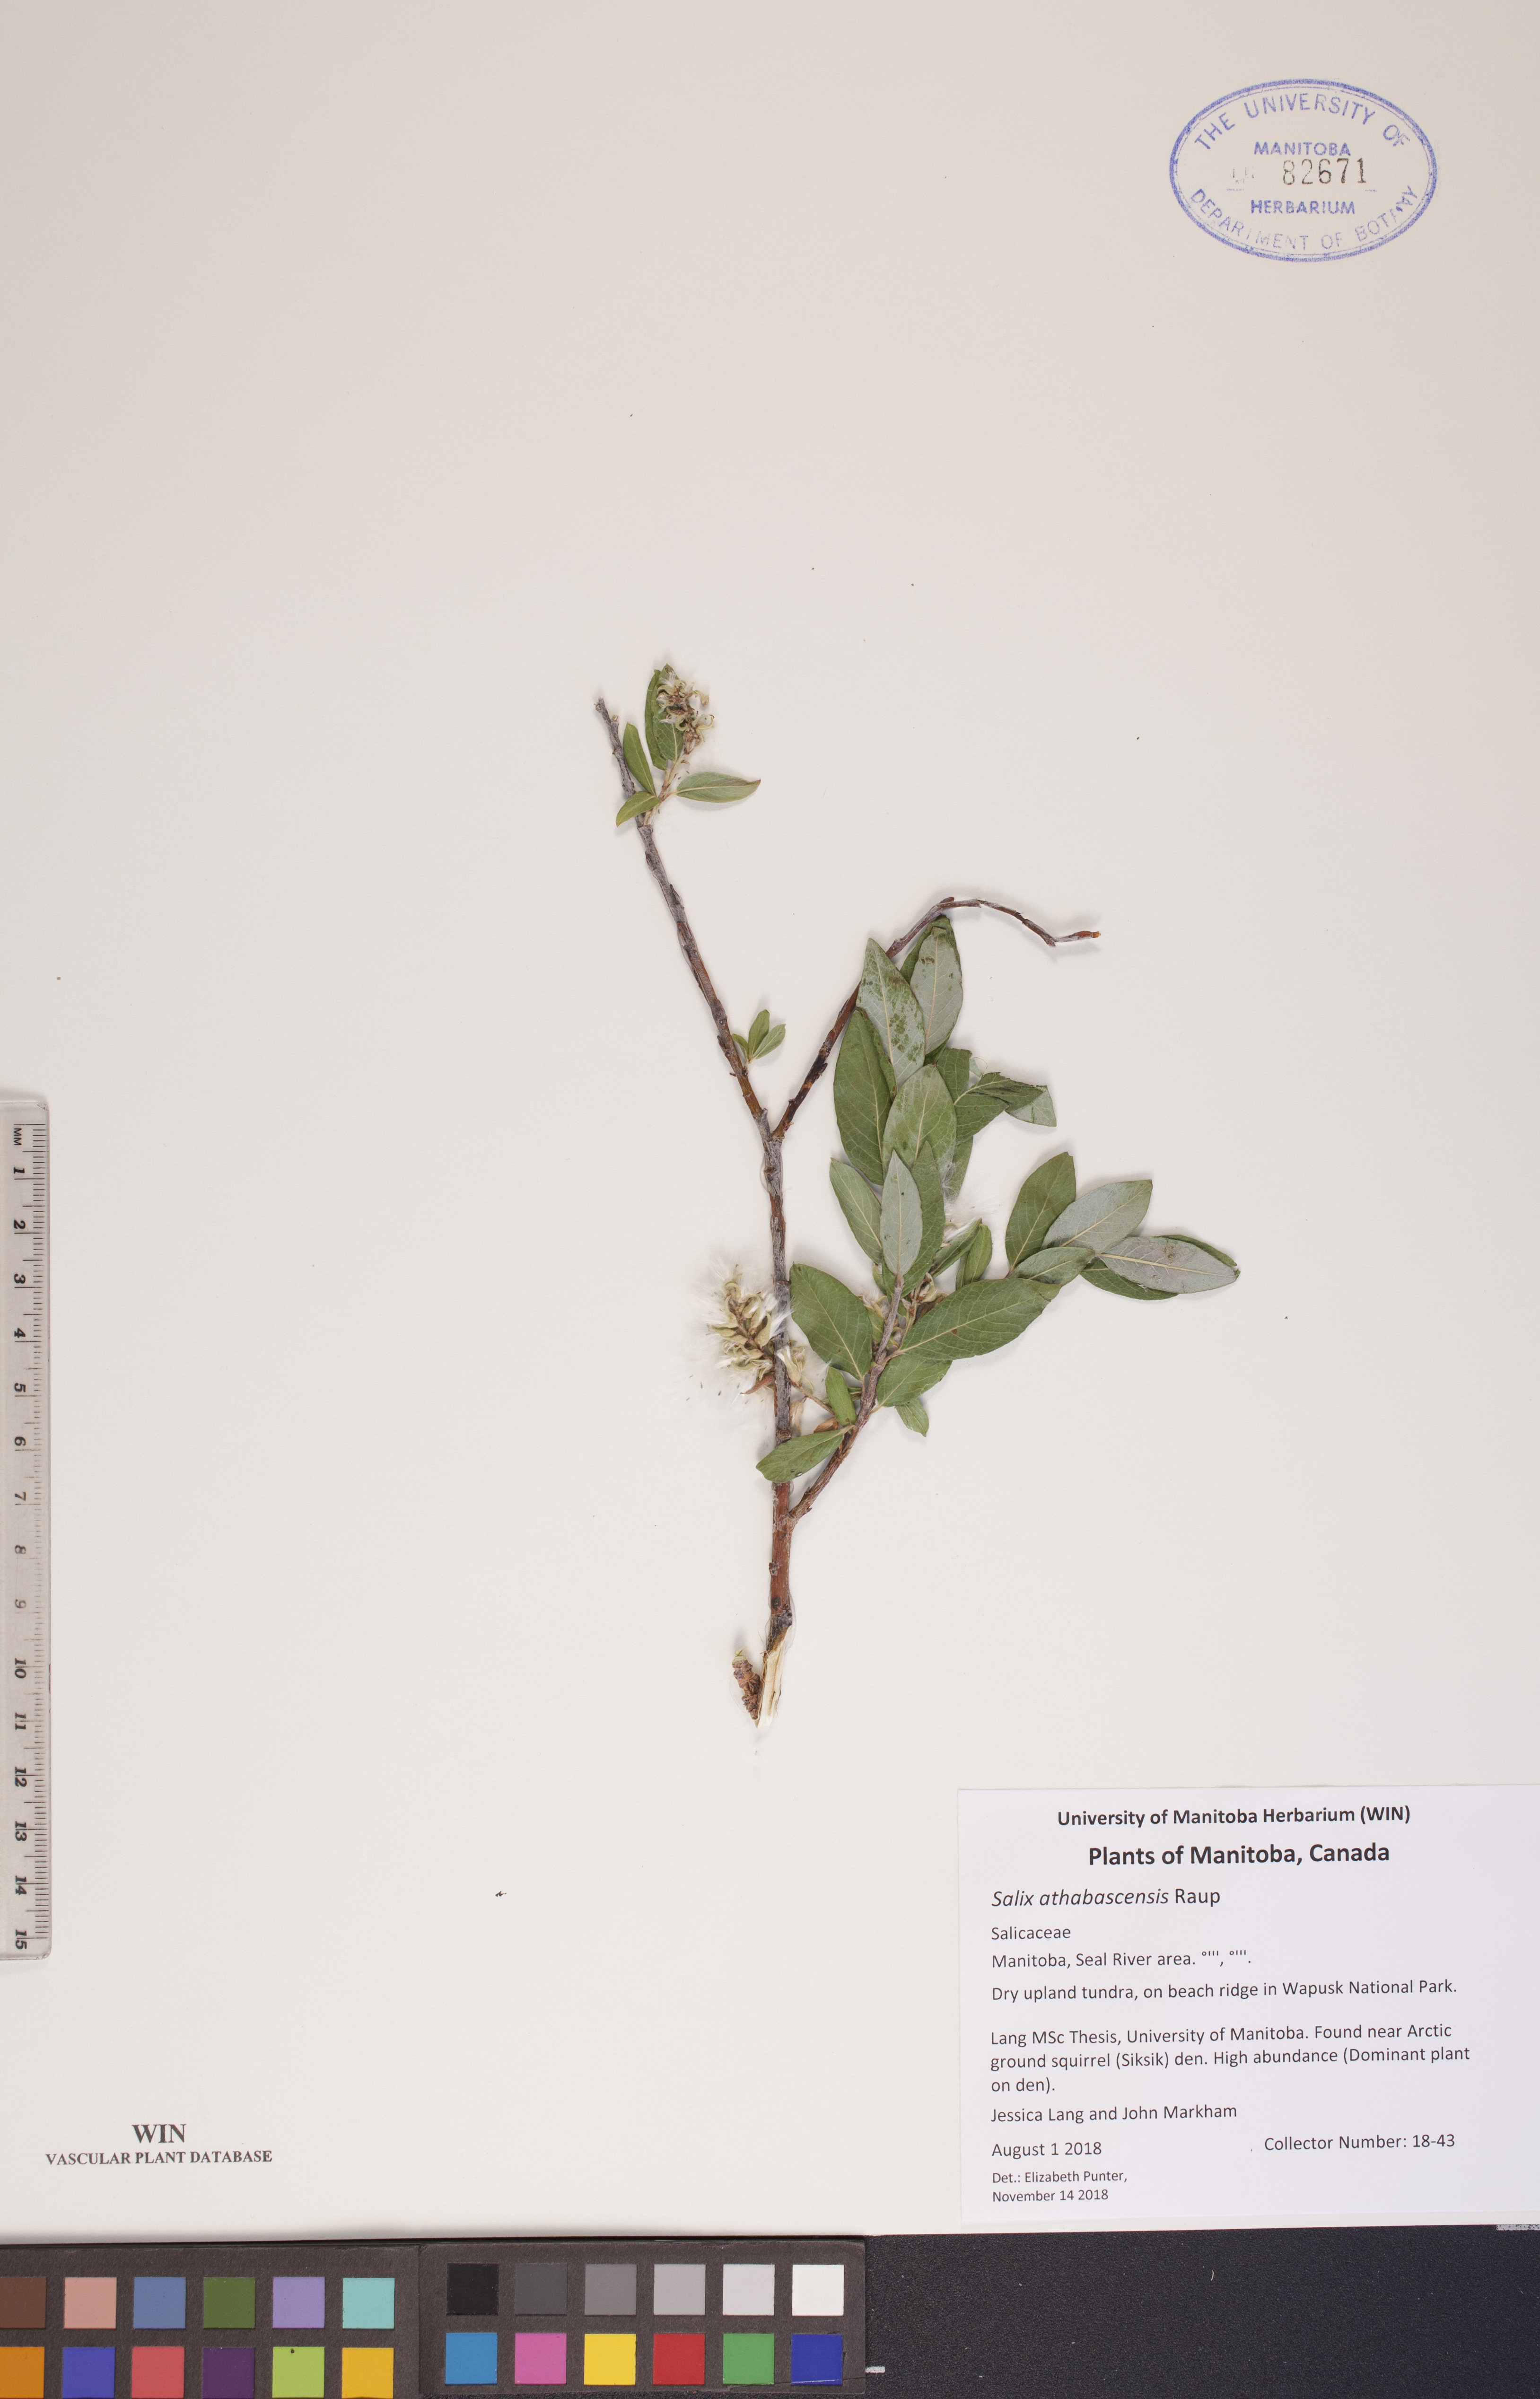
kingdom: Plantae
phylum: Tracheophyta
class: Magnoliopsida
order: Malpighiales
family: Salicaceae
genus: Salix
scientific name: Salix athabascensis
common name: Athabasca willow
